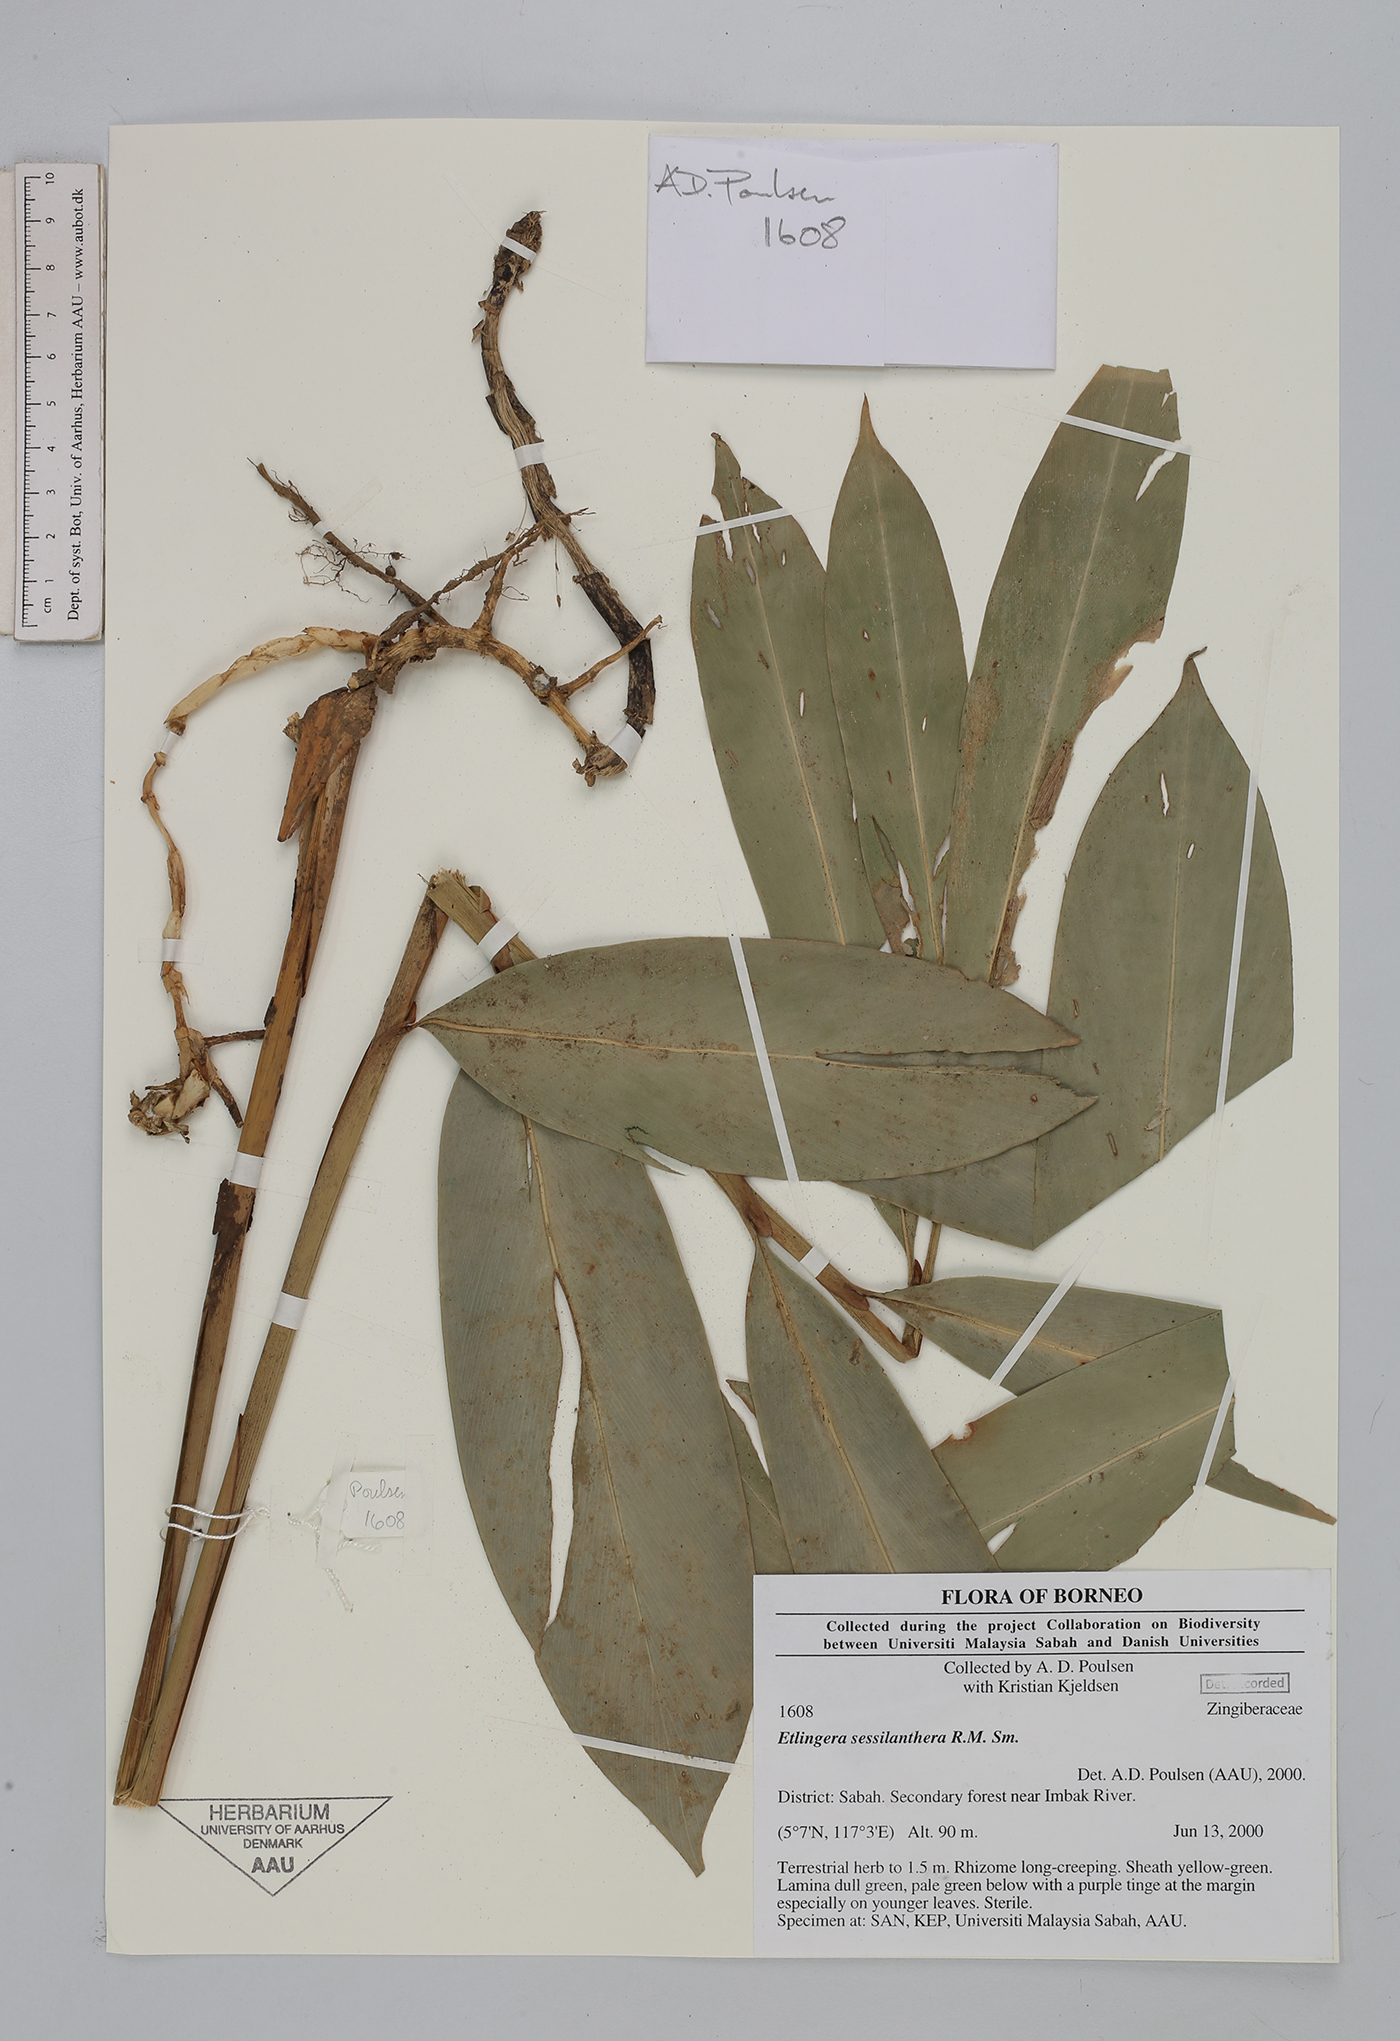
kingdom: Plantae
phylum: Tracheophyta
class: Liliopsida
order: Zingiberales
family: Zingiberaceae
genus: Etlingera
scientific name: Etlingera sessilanthera
